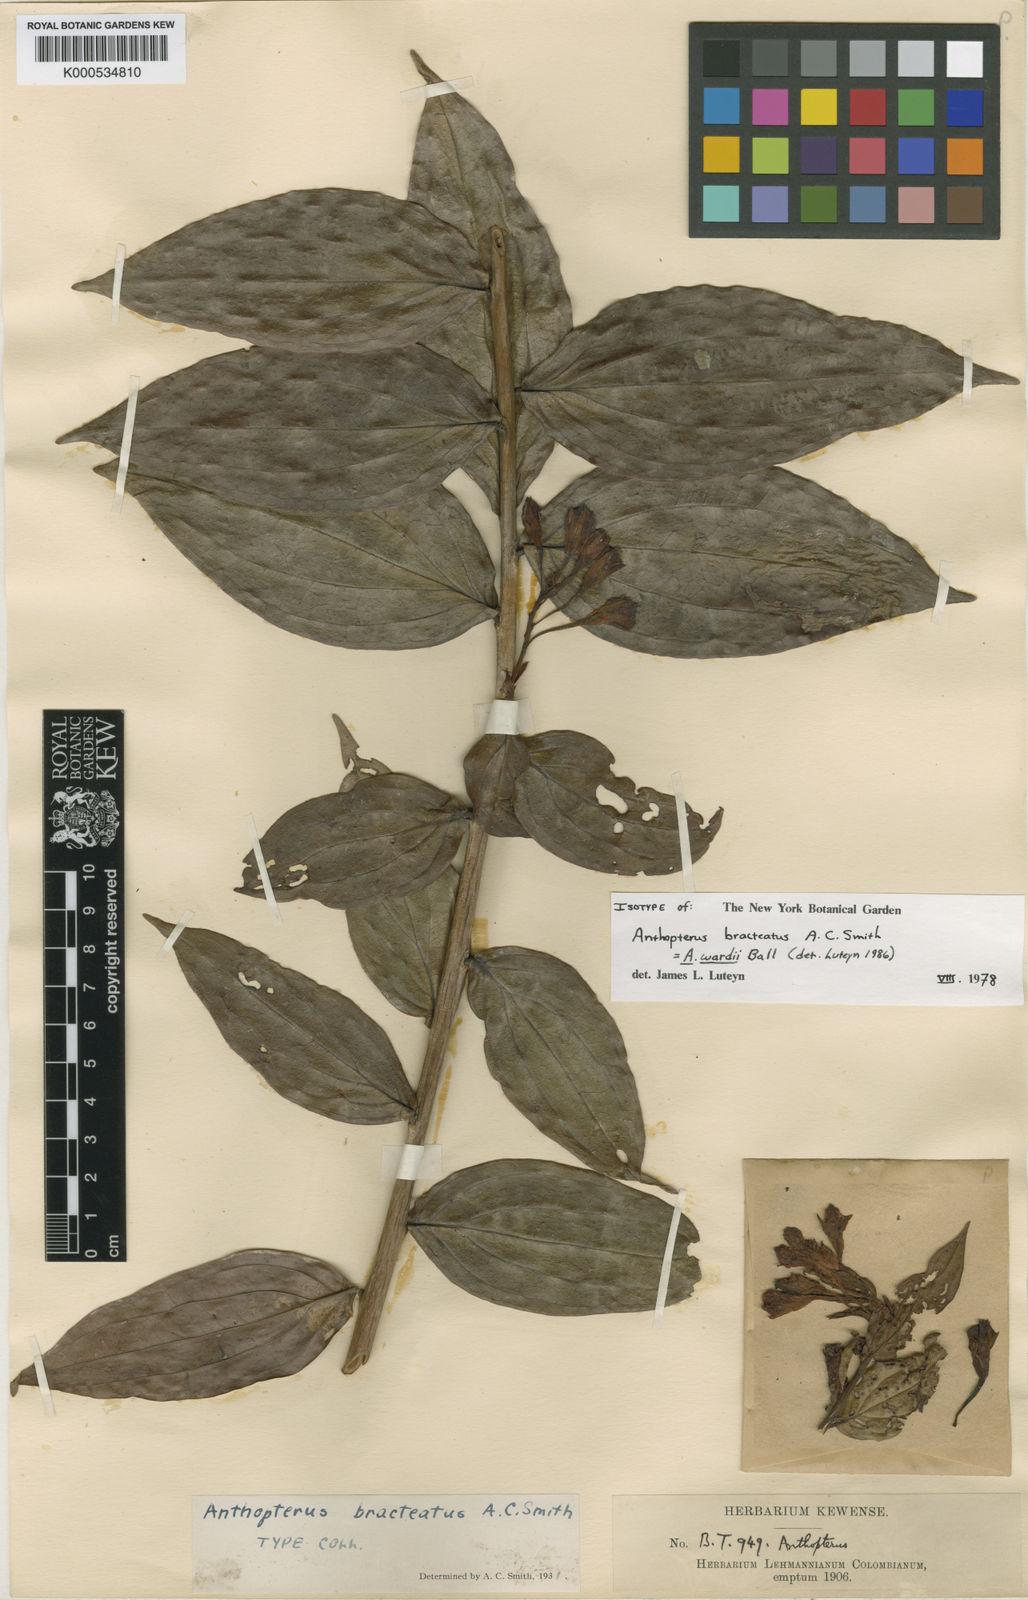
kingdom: Plantae
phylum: Tracheophyta
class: Magnoliopsida
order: Ericales
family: Ericaceae
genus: Anthopterus
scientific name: Anthopterus wardii
